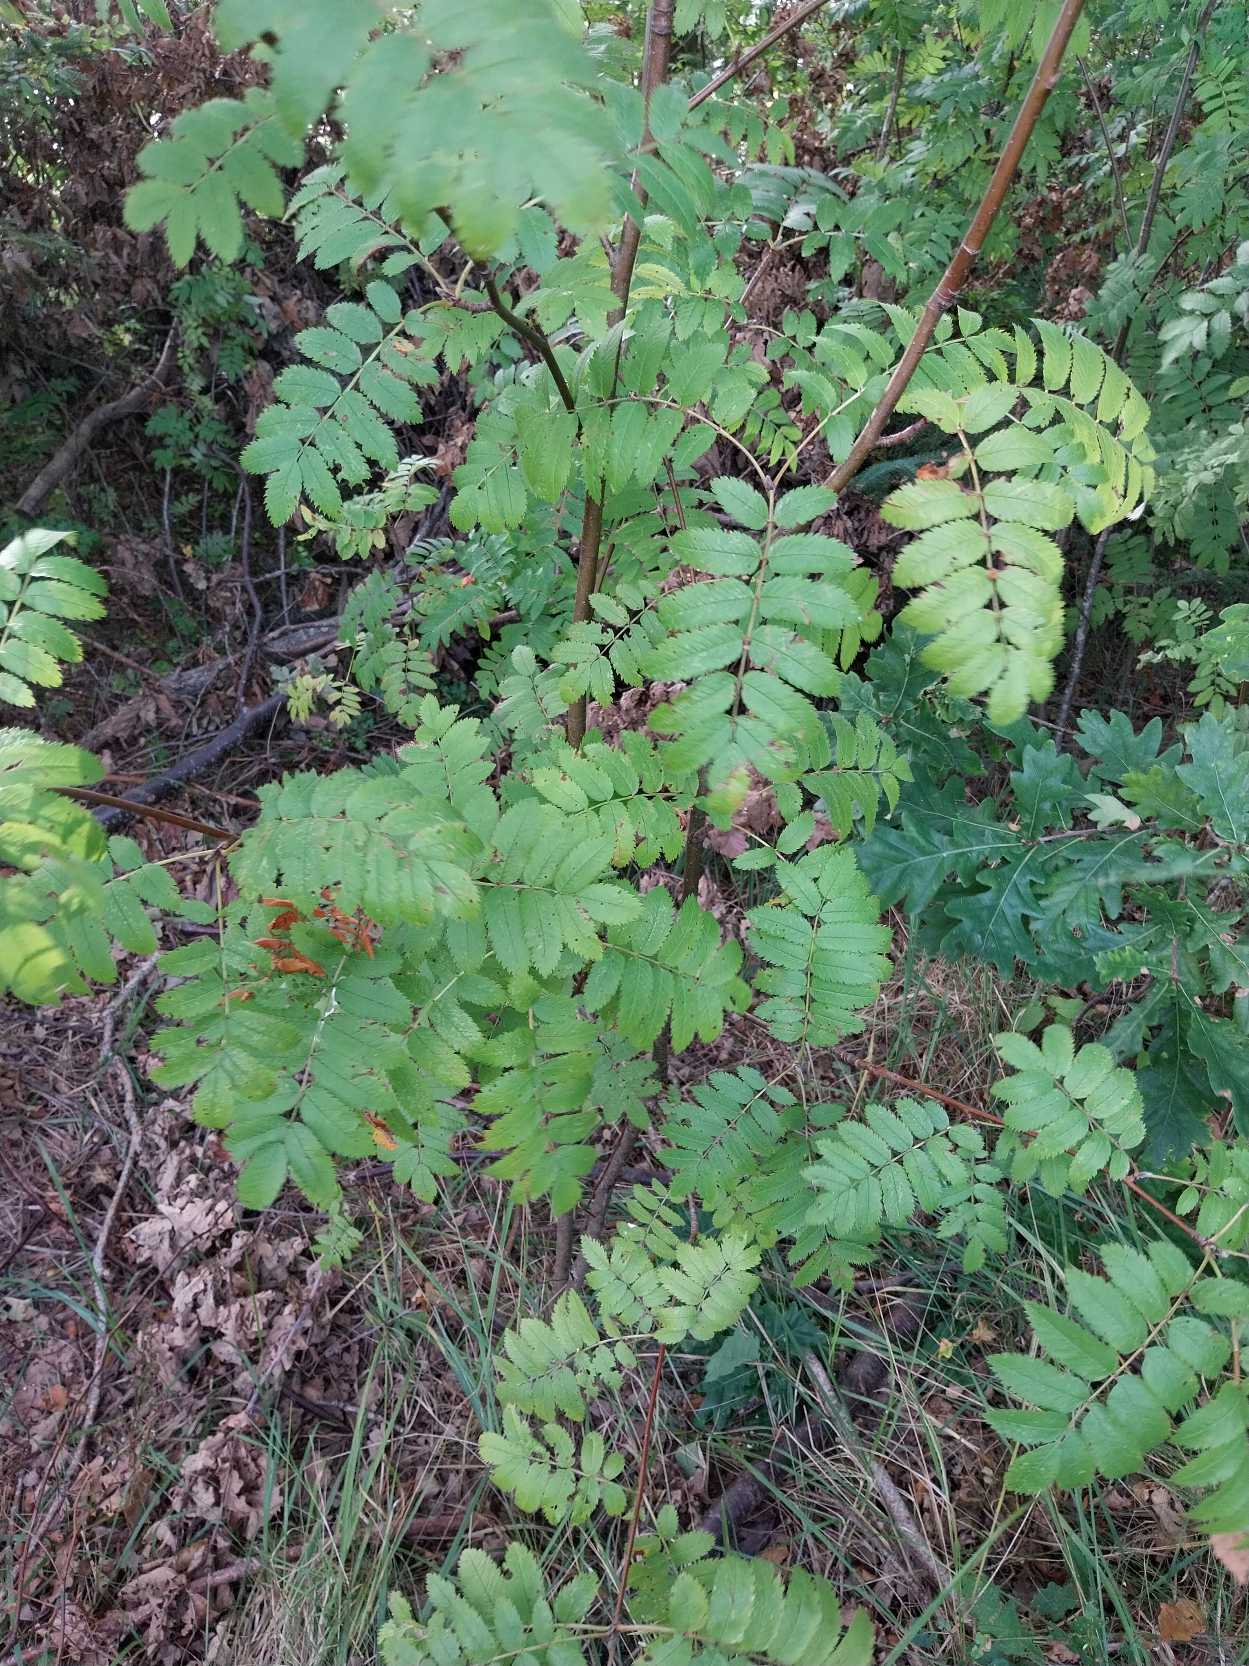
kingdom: Plantae
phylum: Tracheophyta
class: Magnoliopsida
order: Rosales
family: Rosaceae
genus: Sorbus
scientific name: Sorbus aucuparia
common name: Almindelig røn
